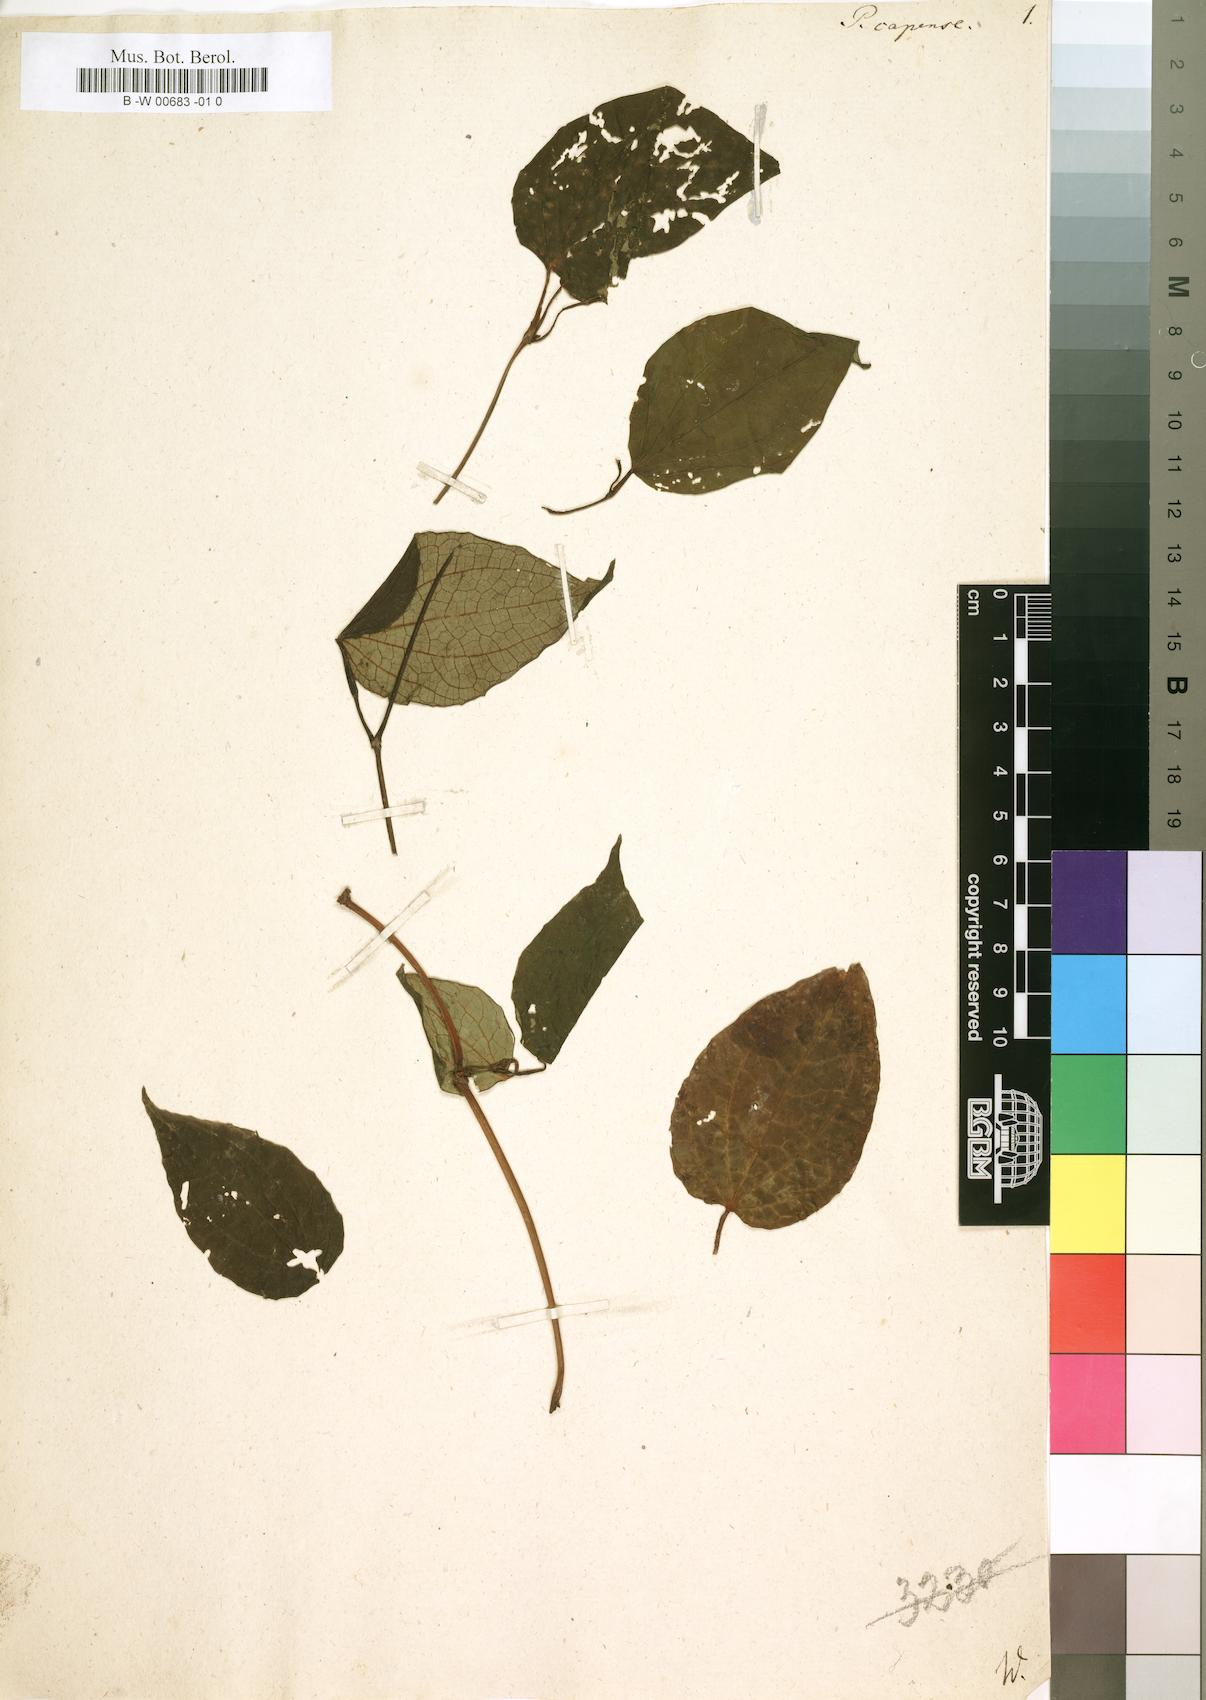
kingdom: Plantae
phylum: Tracheophyta
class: Magnoliopsida
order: Piperales
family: Piperaceae
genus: Piper
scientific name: Piper capense
